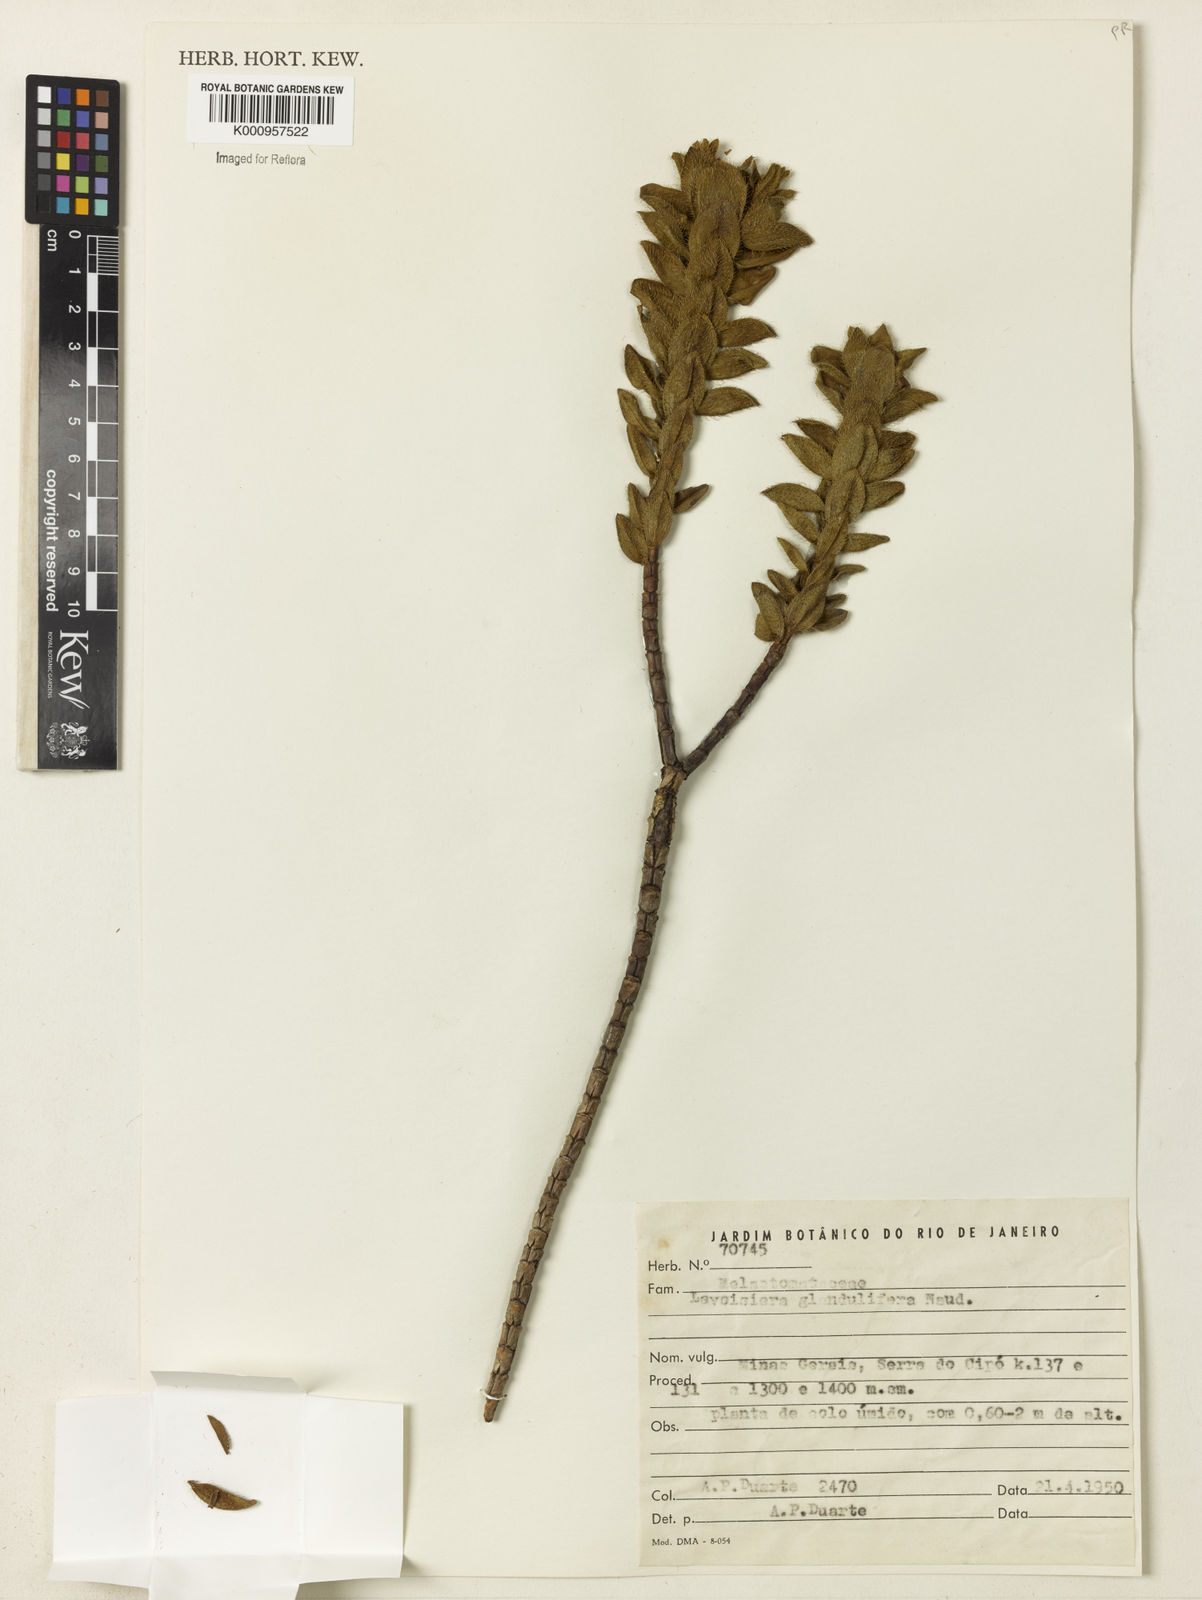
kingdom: Plantae
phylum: Tracheophyta
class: Magnoliopsida
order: Myrtales
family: Melastomataceae
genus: Microlicia
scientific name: Microlicia glandulifolia
